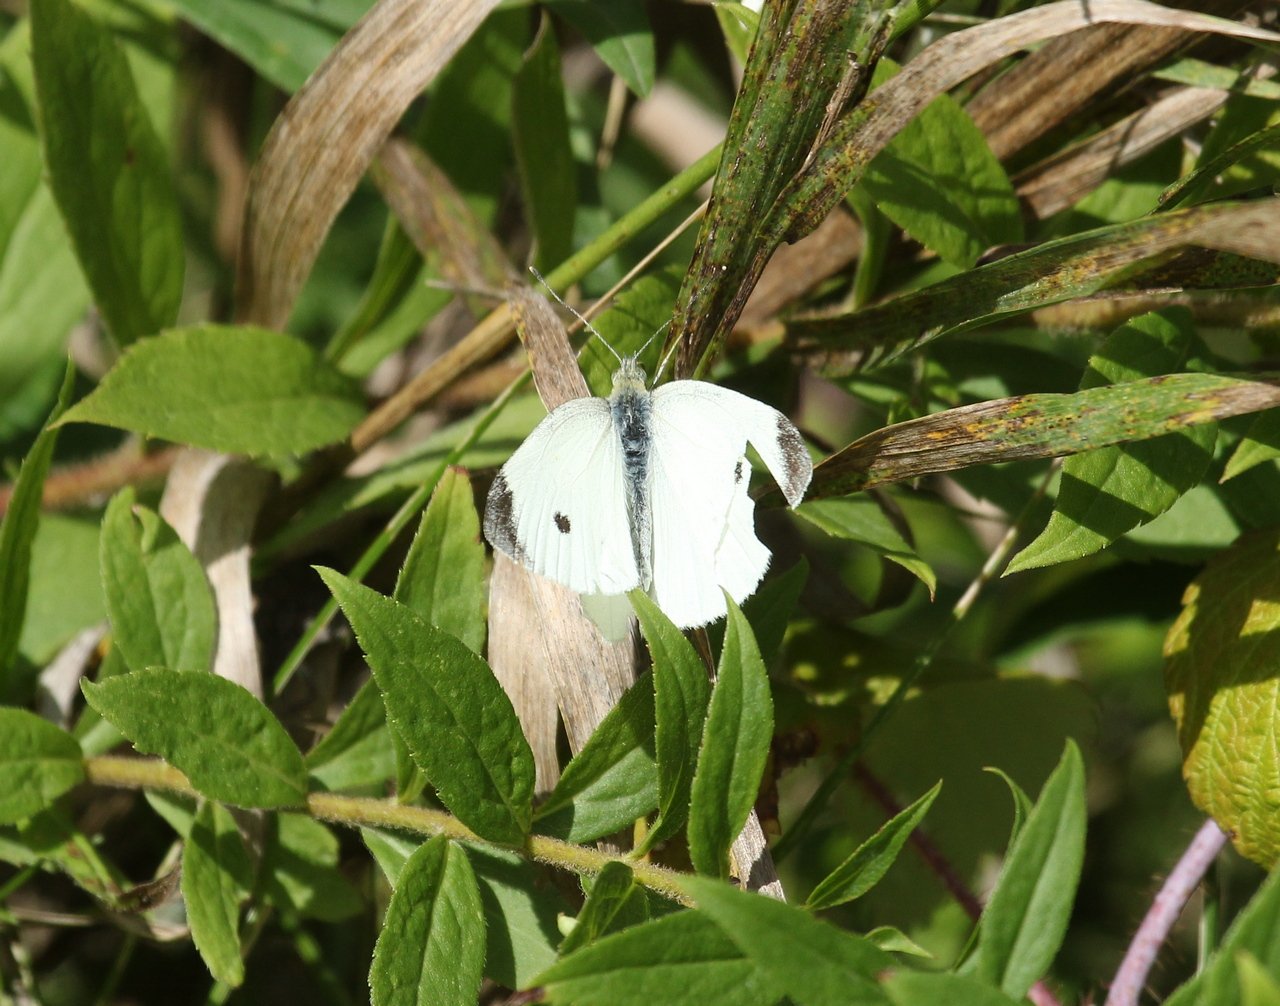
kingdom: Animalia
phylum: Arthropoda
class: Insecta
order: Lepidoptera
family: Pieridae
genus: Pieris
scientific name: Pieris rapae
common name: Cabbage White
